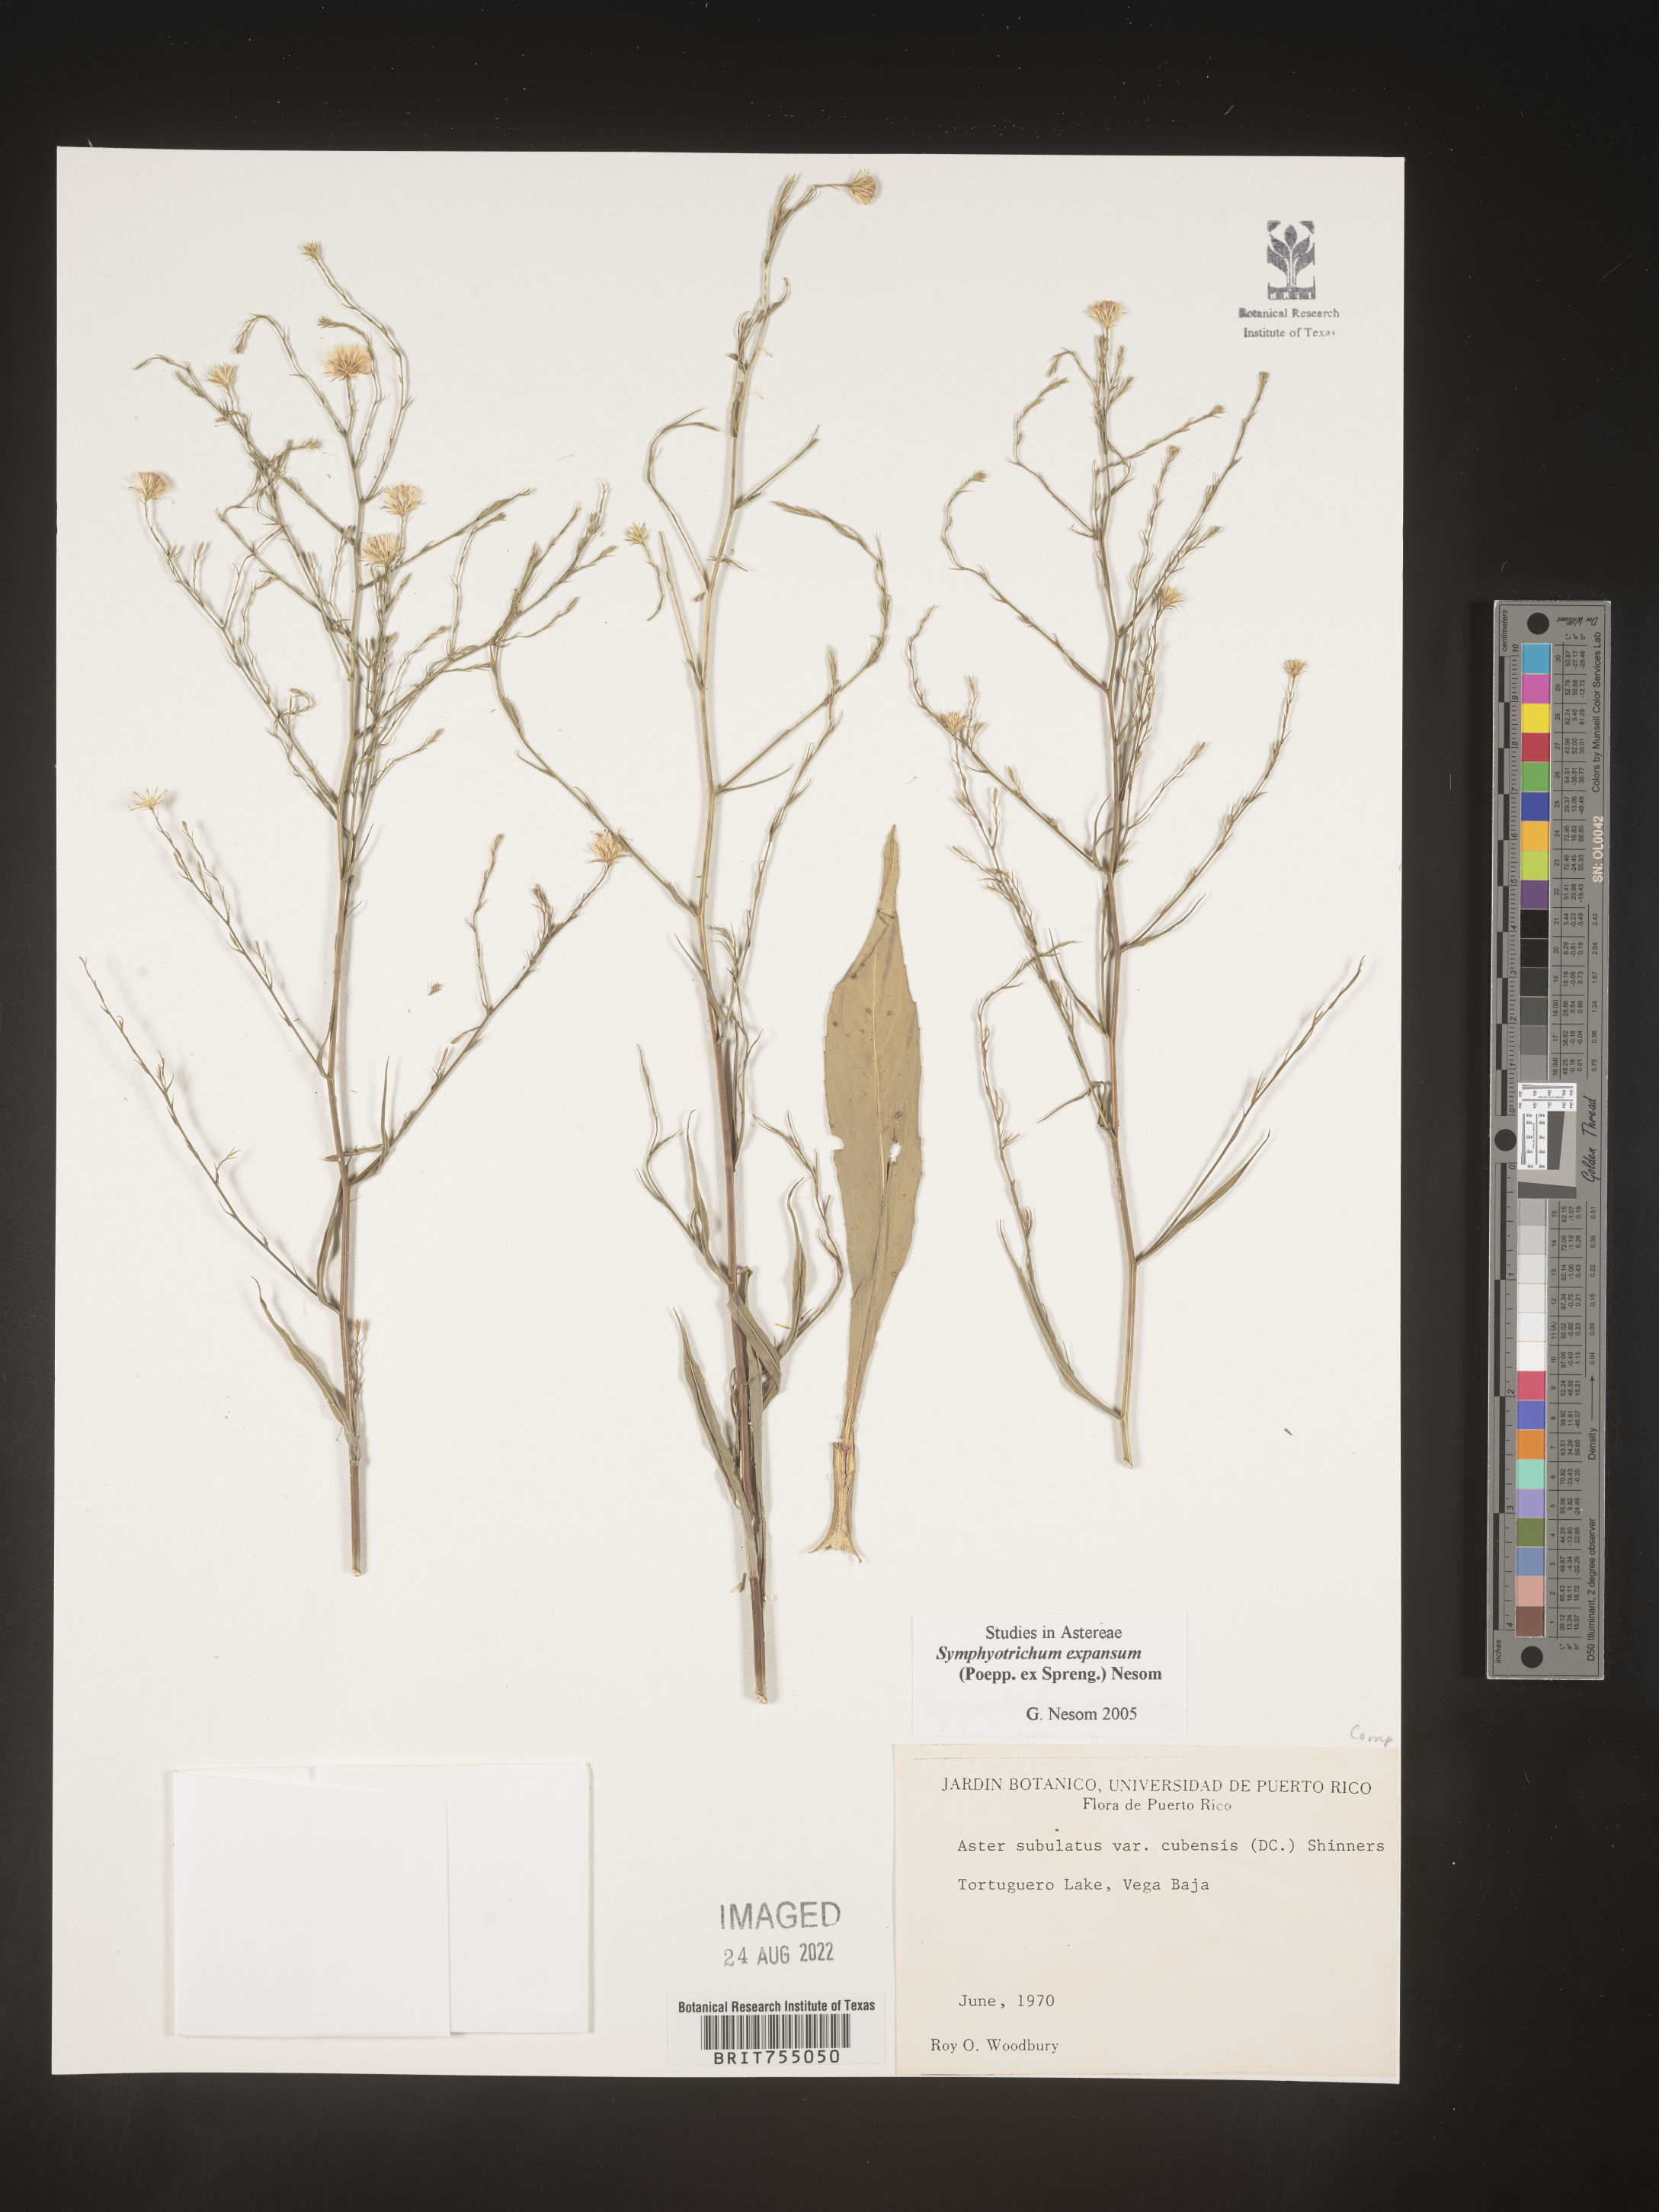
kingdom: Plantae
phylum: Tracheophyta
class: Magnoliopsida
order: Asterales
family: Asteraceae
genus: Symphyotrichum
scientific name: Symphyotrichum expansum
